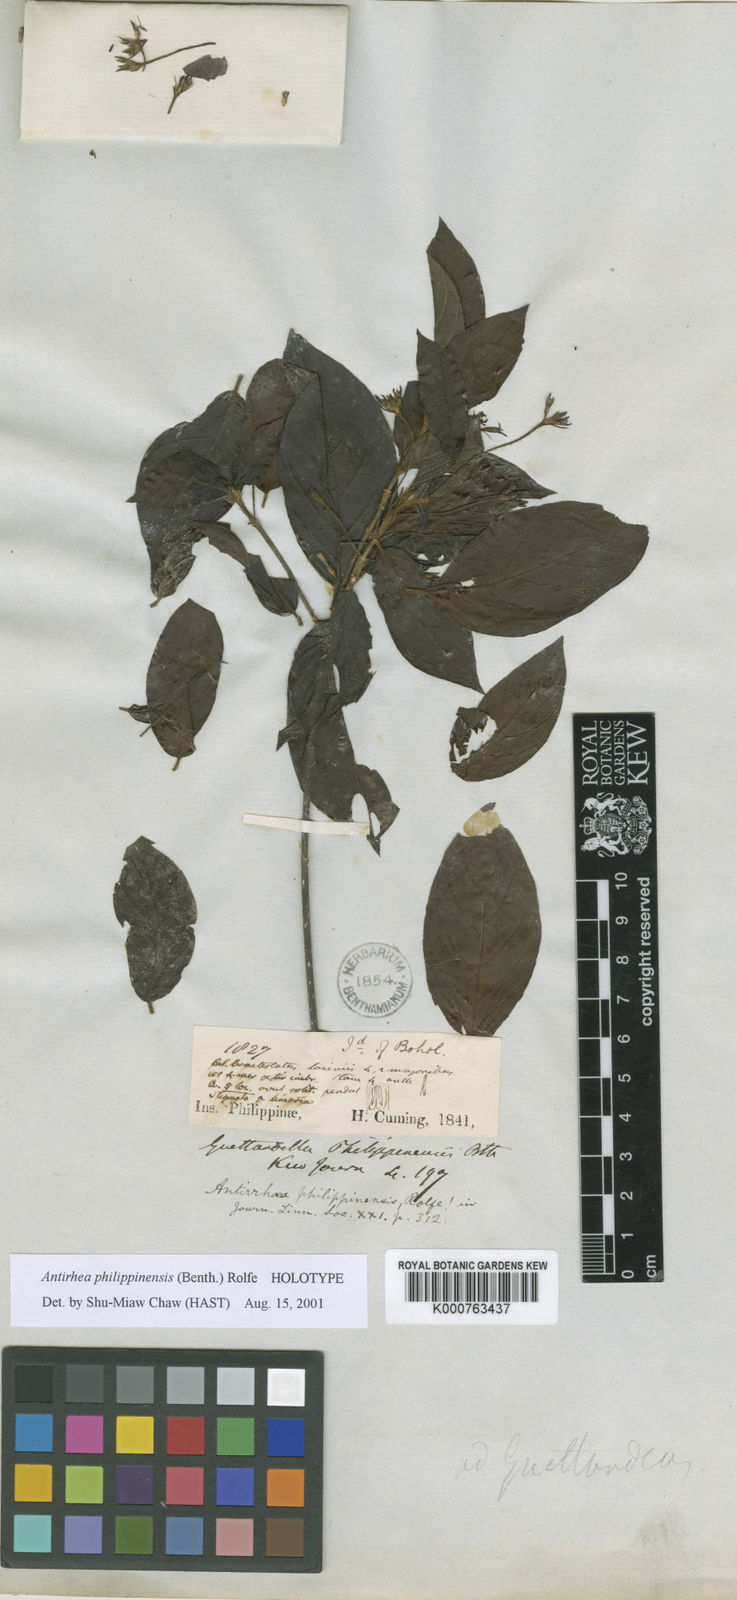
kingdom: Plantae
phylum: Tracheophyta
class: Magnoliopsida
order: Gentianales
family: Rubiaceae
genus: Guettardella
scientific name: Guettardella philippinensis
